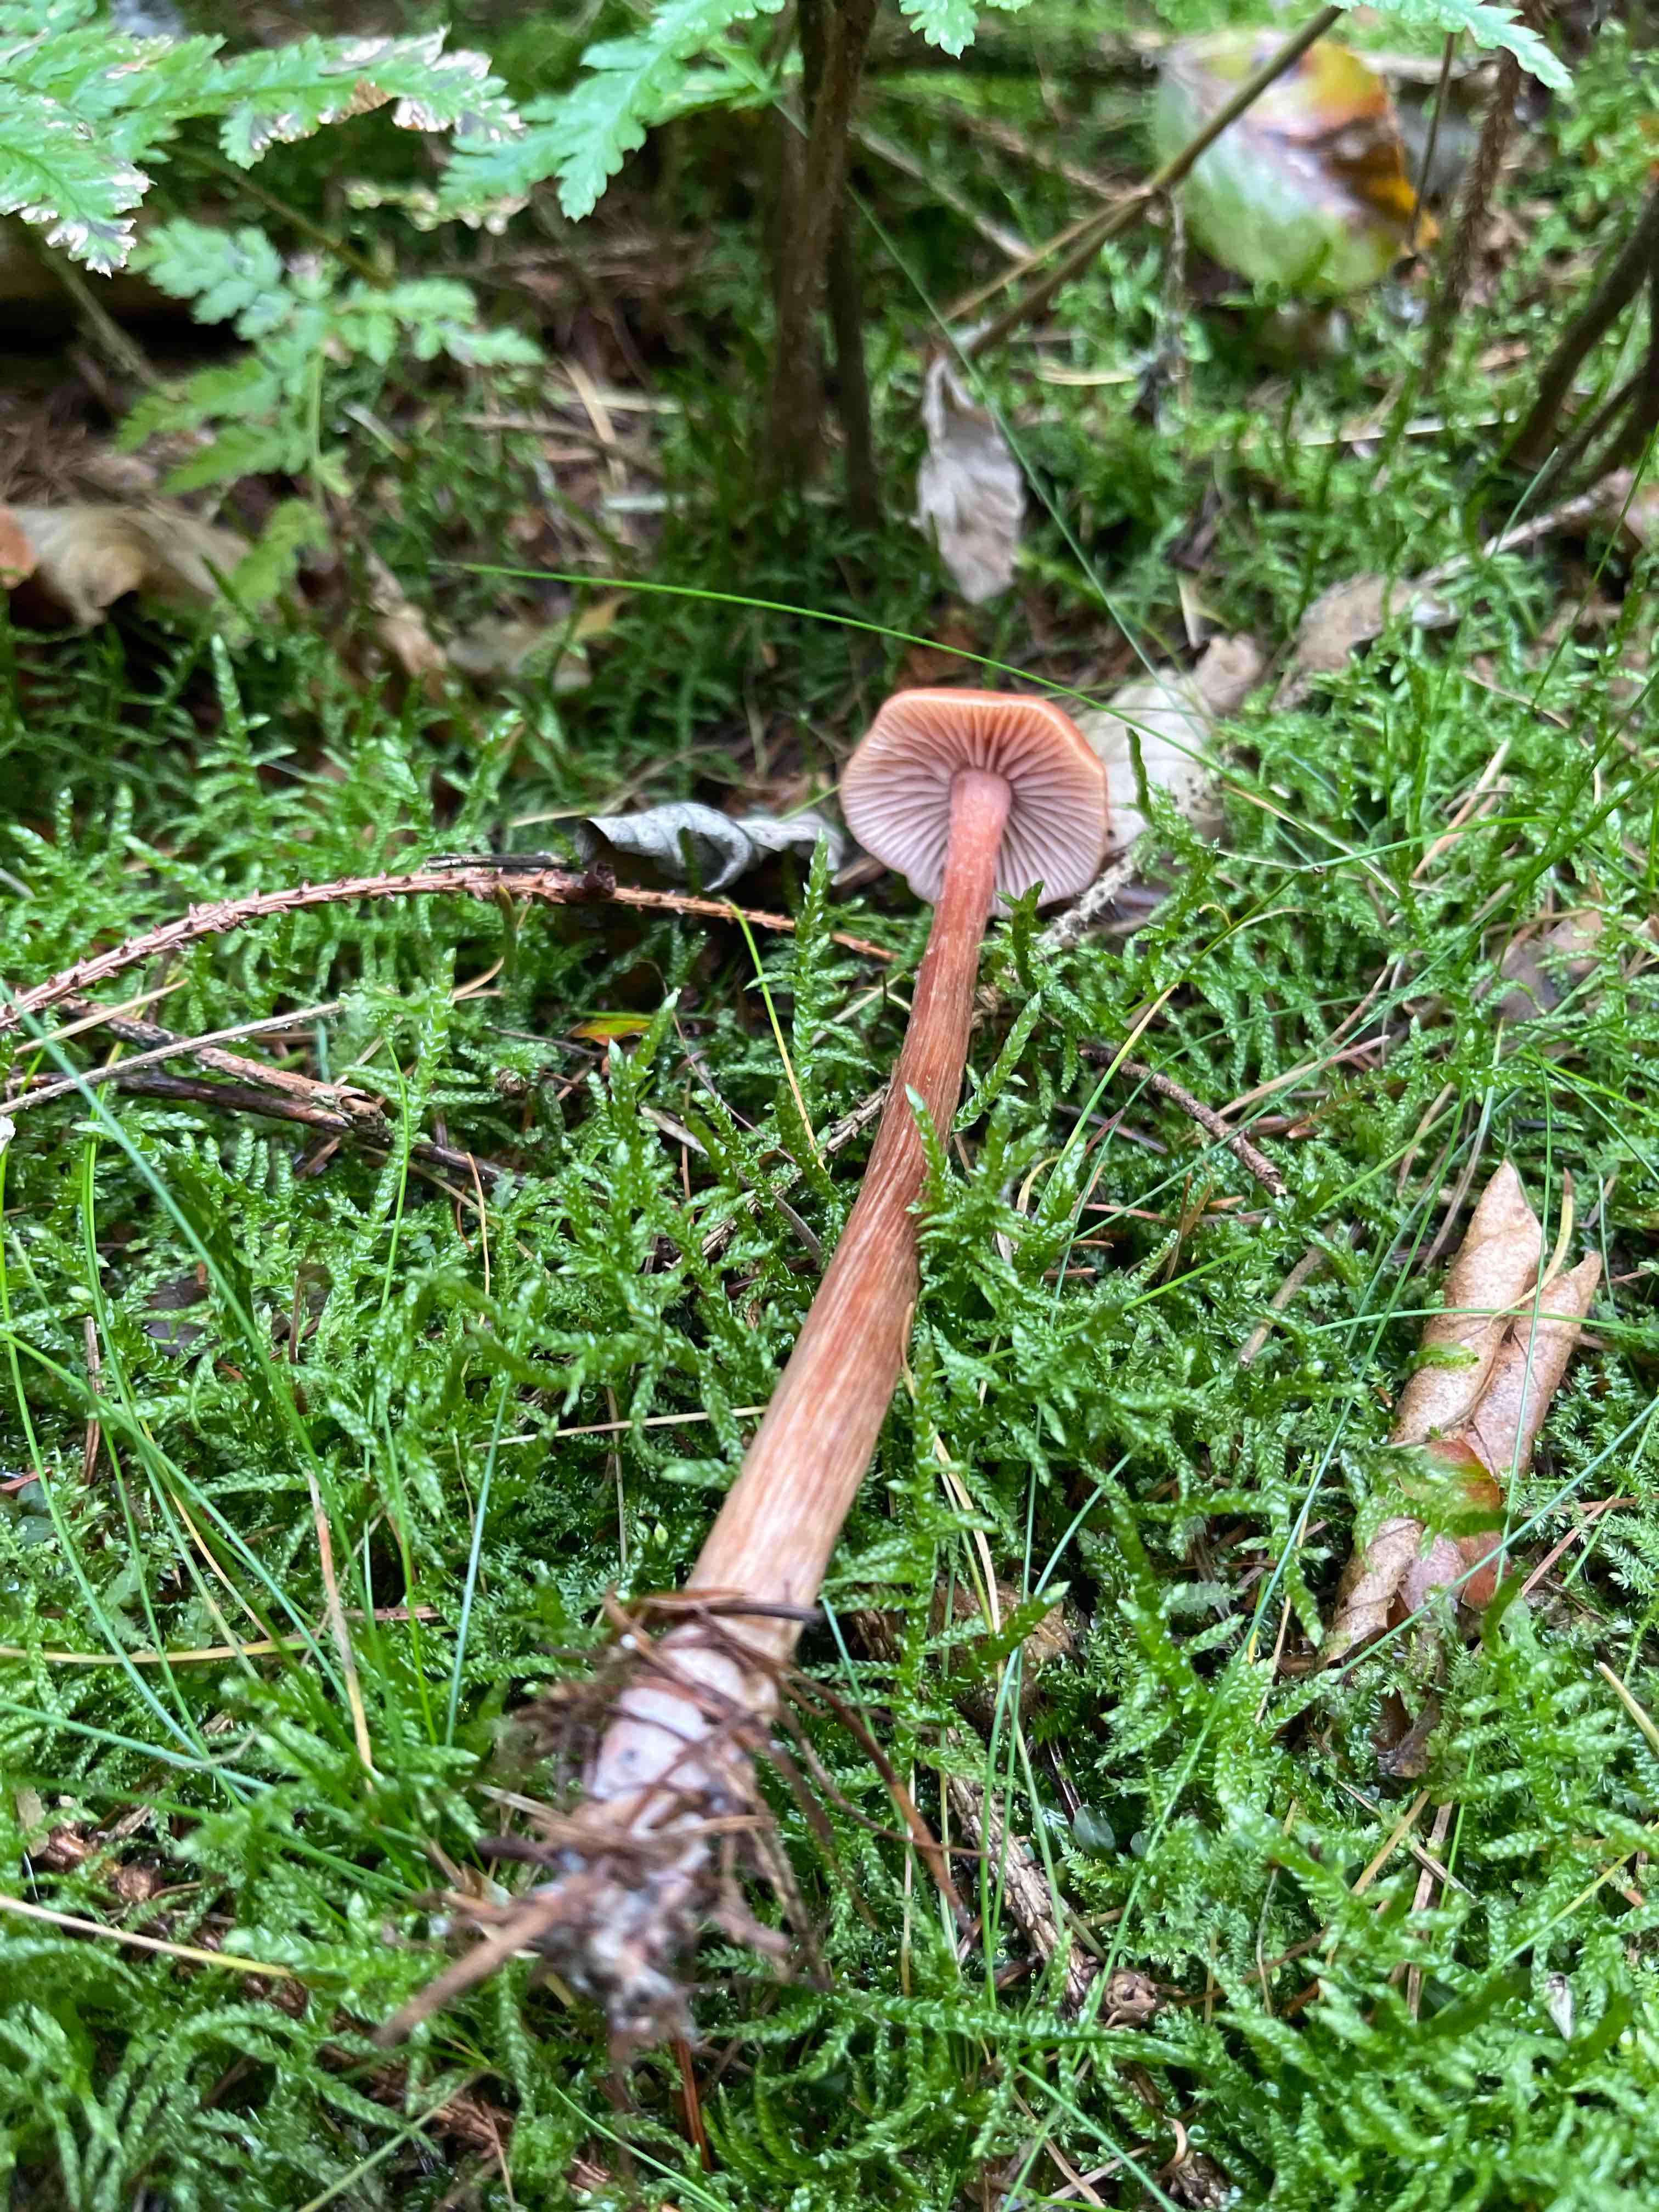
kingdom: Fungi
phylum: Basidiomycota
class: Agaricomycetes
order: Agaricales
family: Hydnangiaceae
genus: Laccaria
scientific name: Laccaria proxima
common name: stor ametysthat
